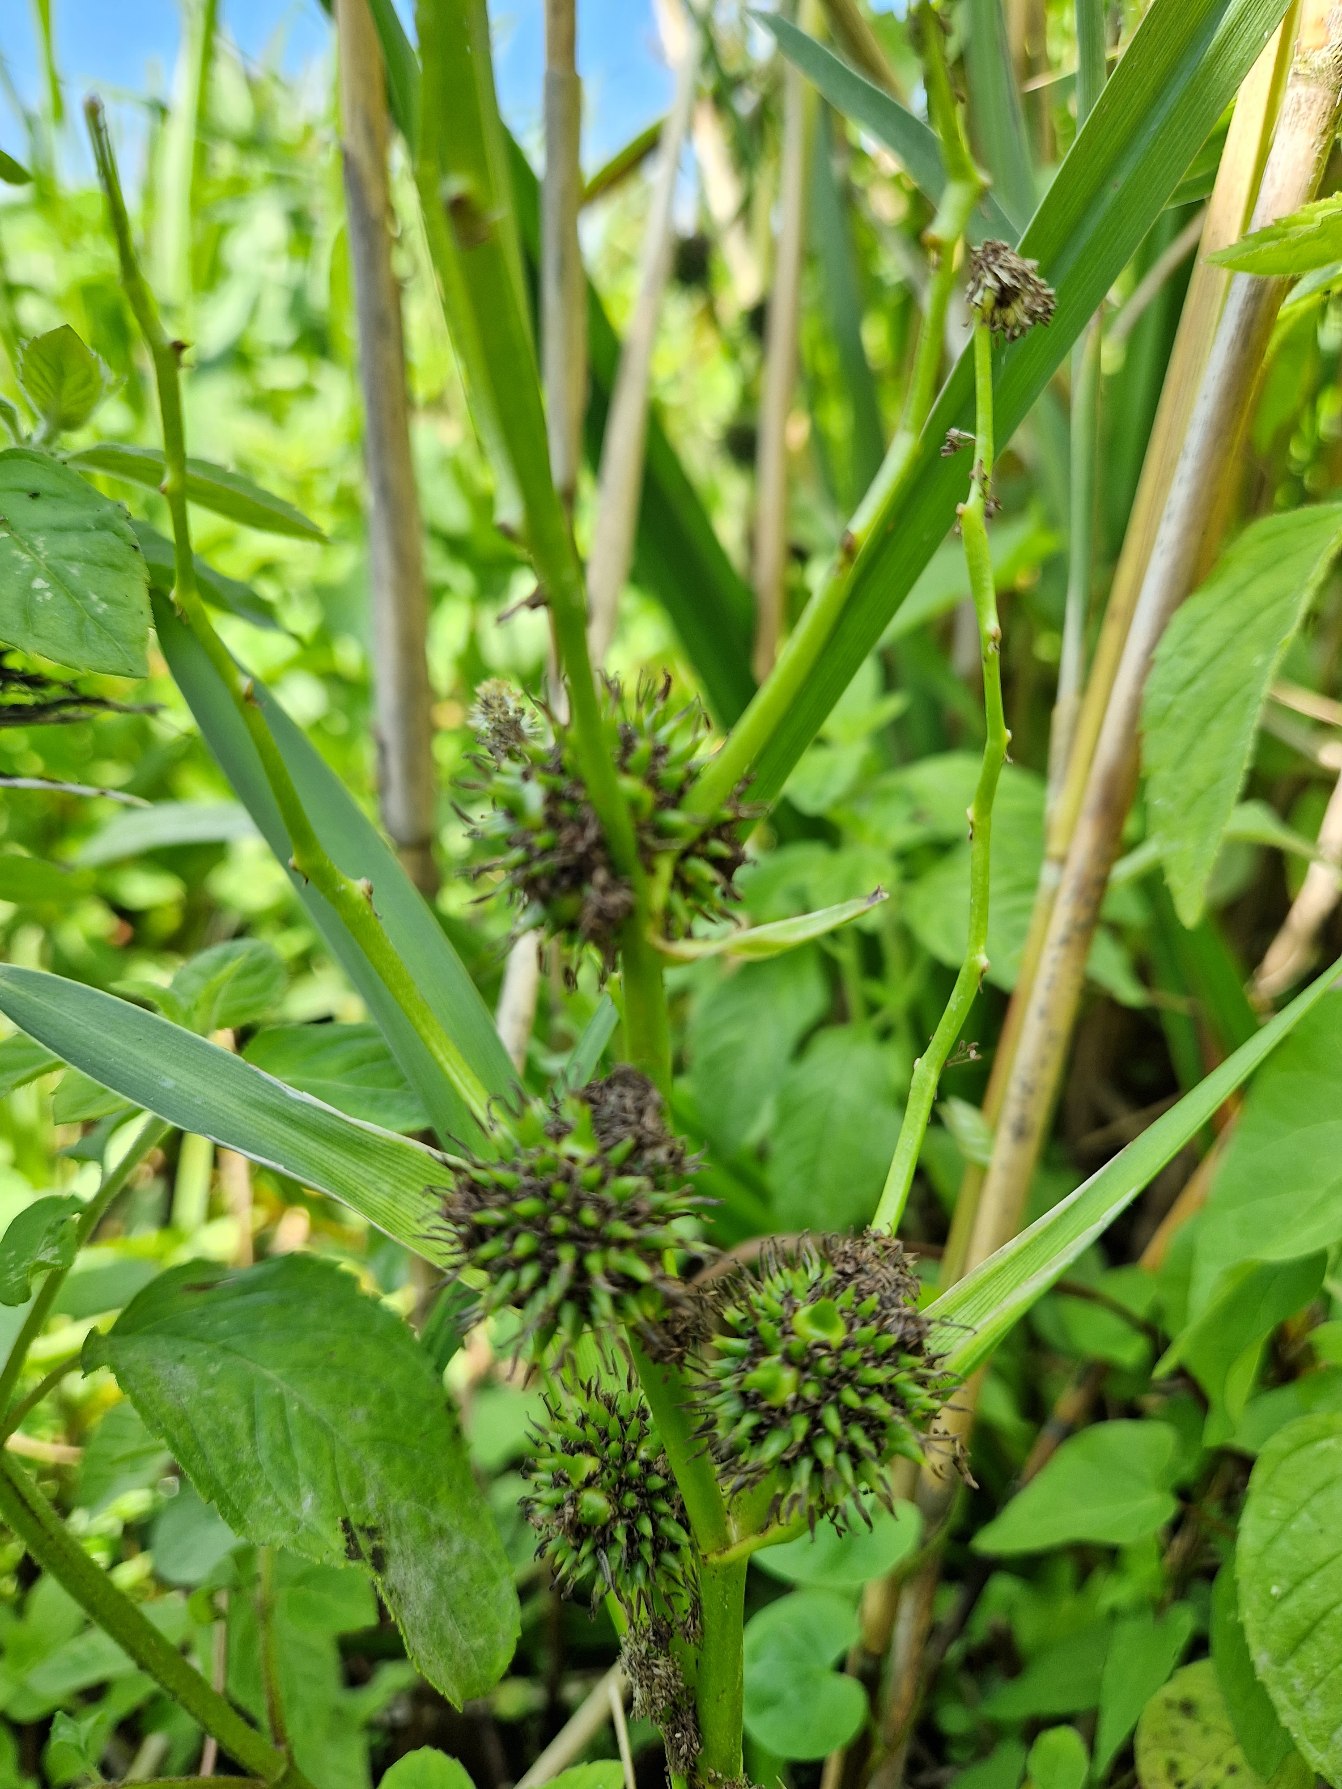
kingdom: Plantae
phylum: Tracheophyta
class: Liliopsida
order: Poales
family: Typhaceae
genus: Sparganium
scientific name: Sparganium erectum
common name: Grenet pindsvineknop
